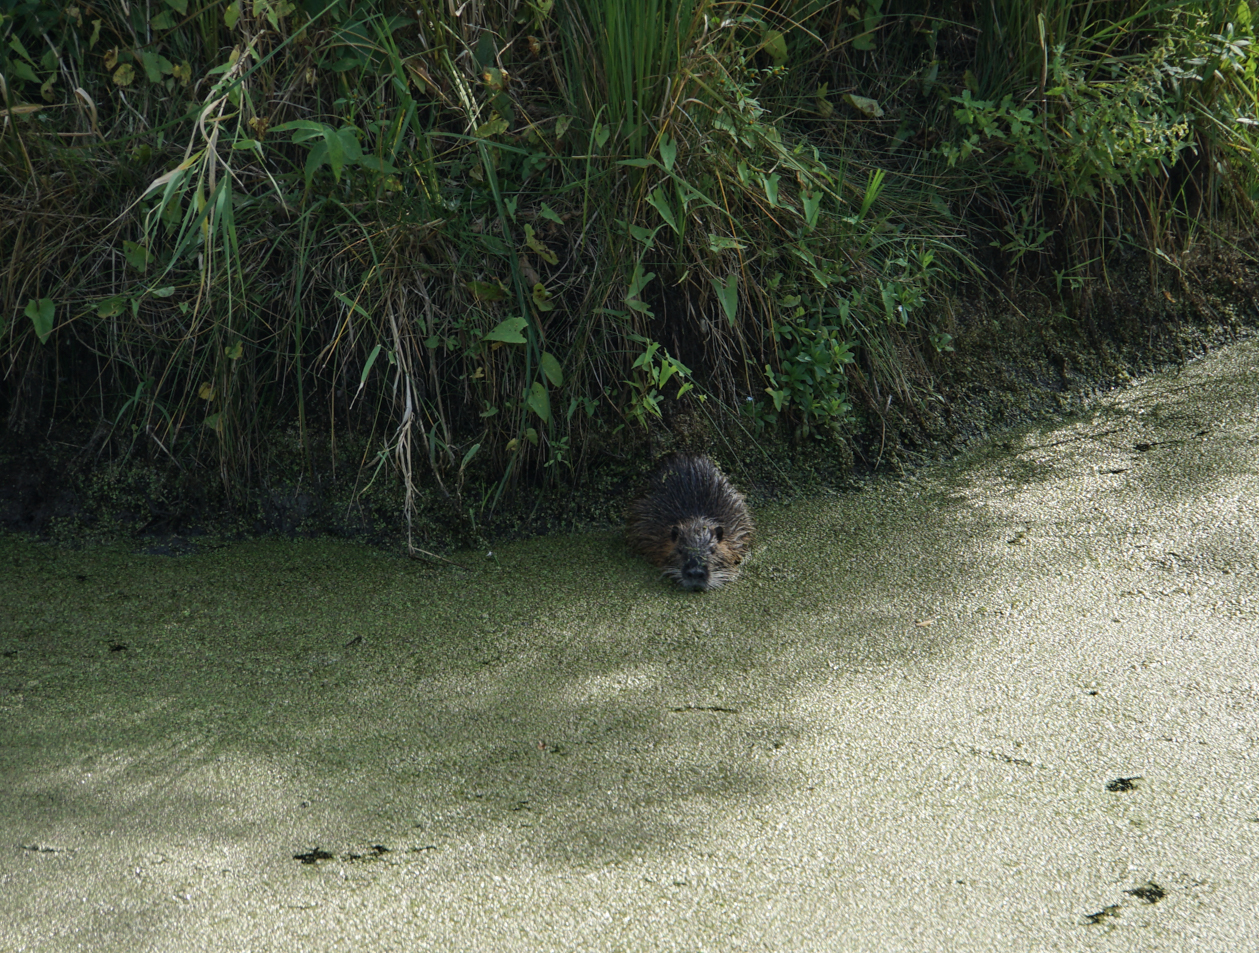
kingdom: Animalia
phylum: Chordata
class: Mammalia
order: Rodentia
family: Cricetidae
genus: Ondatra
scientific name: Ondatra zibethicus
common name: Muskrat
